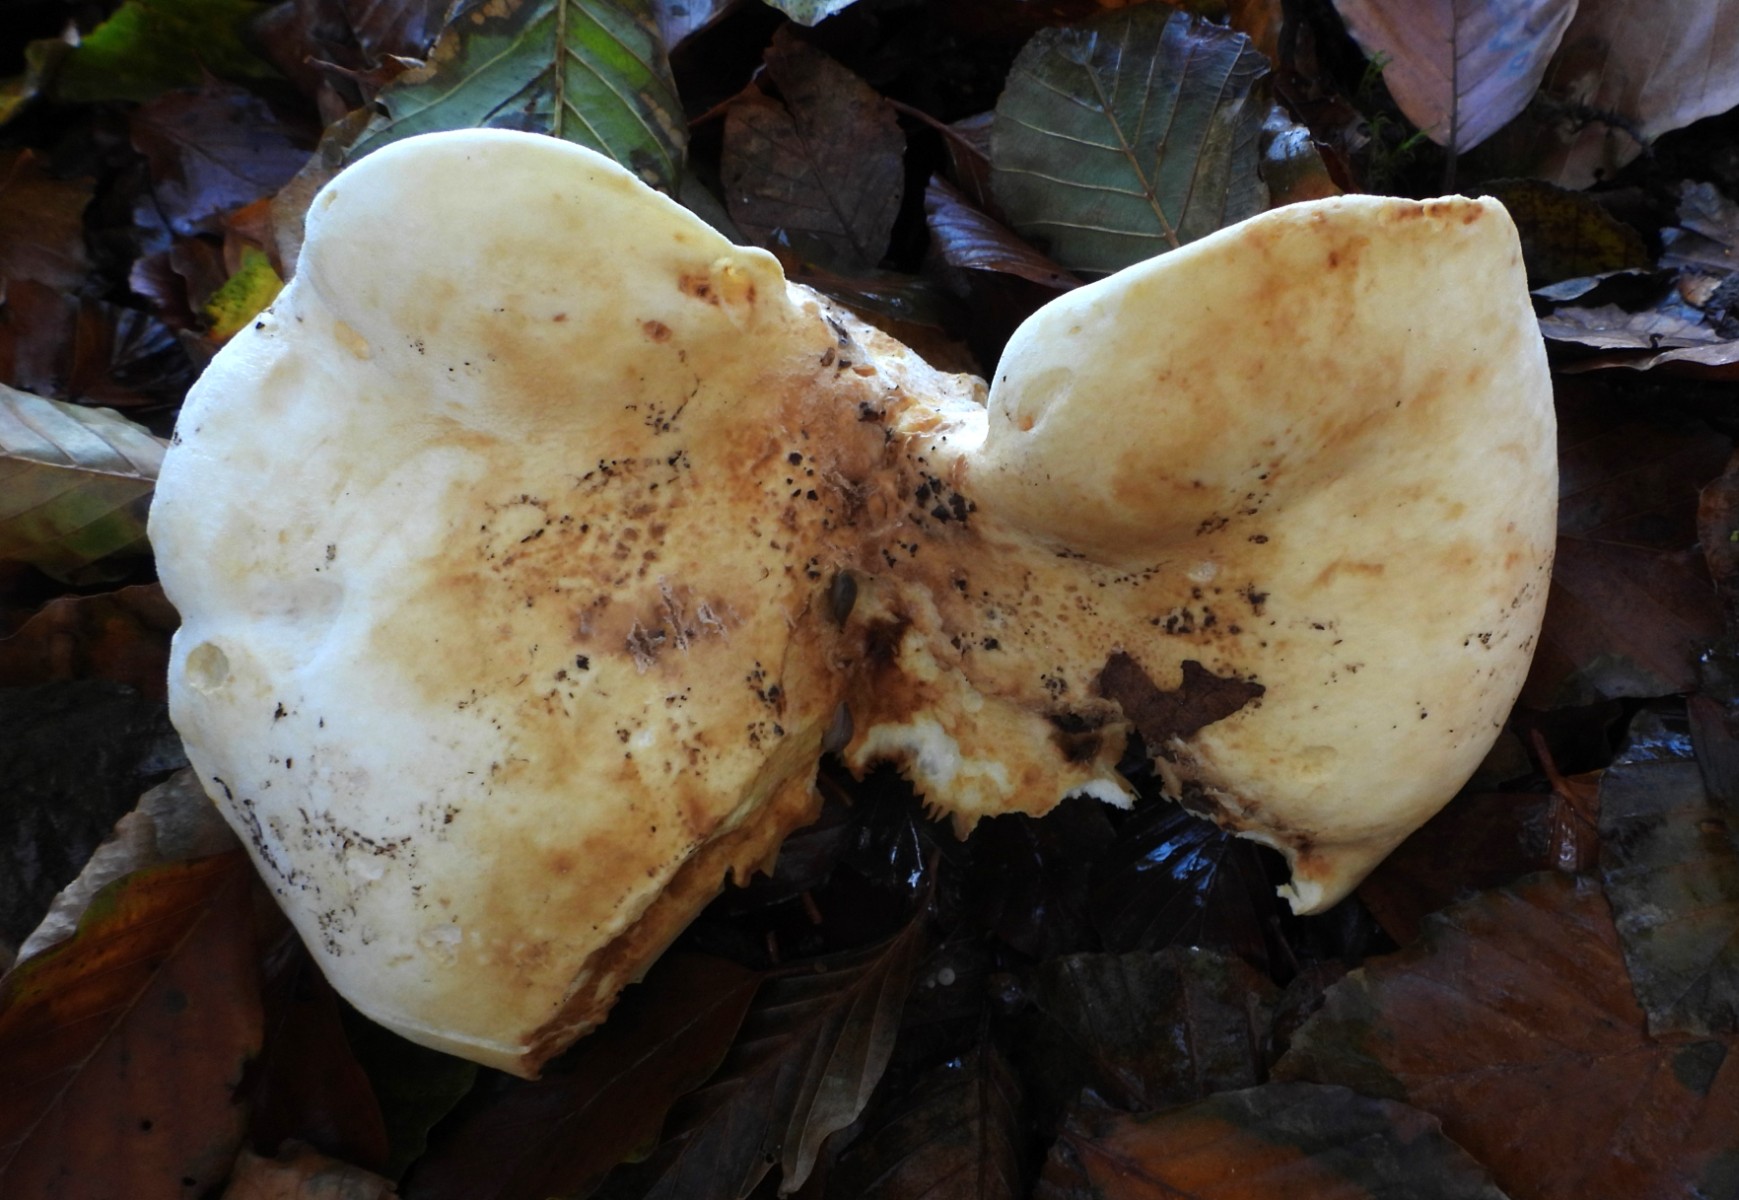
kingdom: Fungi
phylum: Basidiomycota
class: Agaricomycetes
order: Russulales
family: Russulaceae
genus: Lactifluus
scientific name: Lactifluus vellereus
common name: hvidfiltet mælkehat
